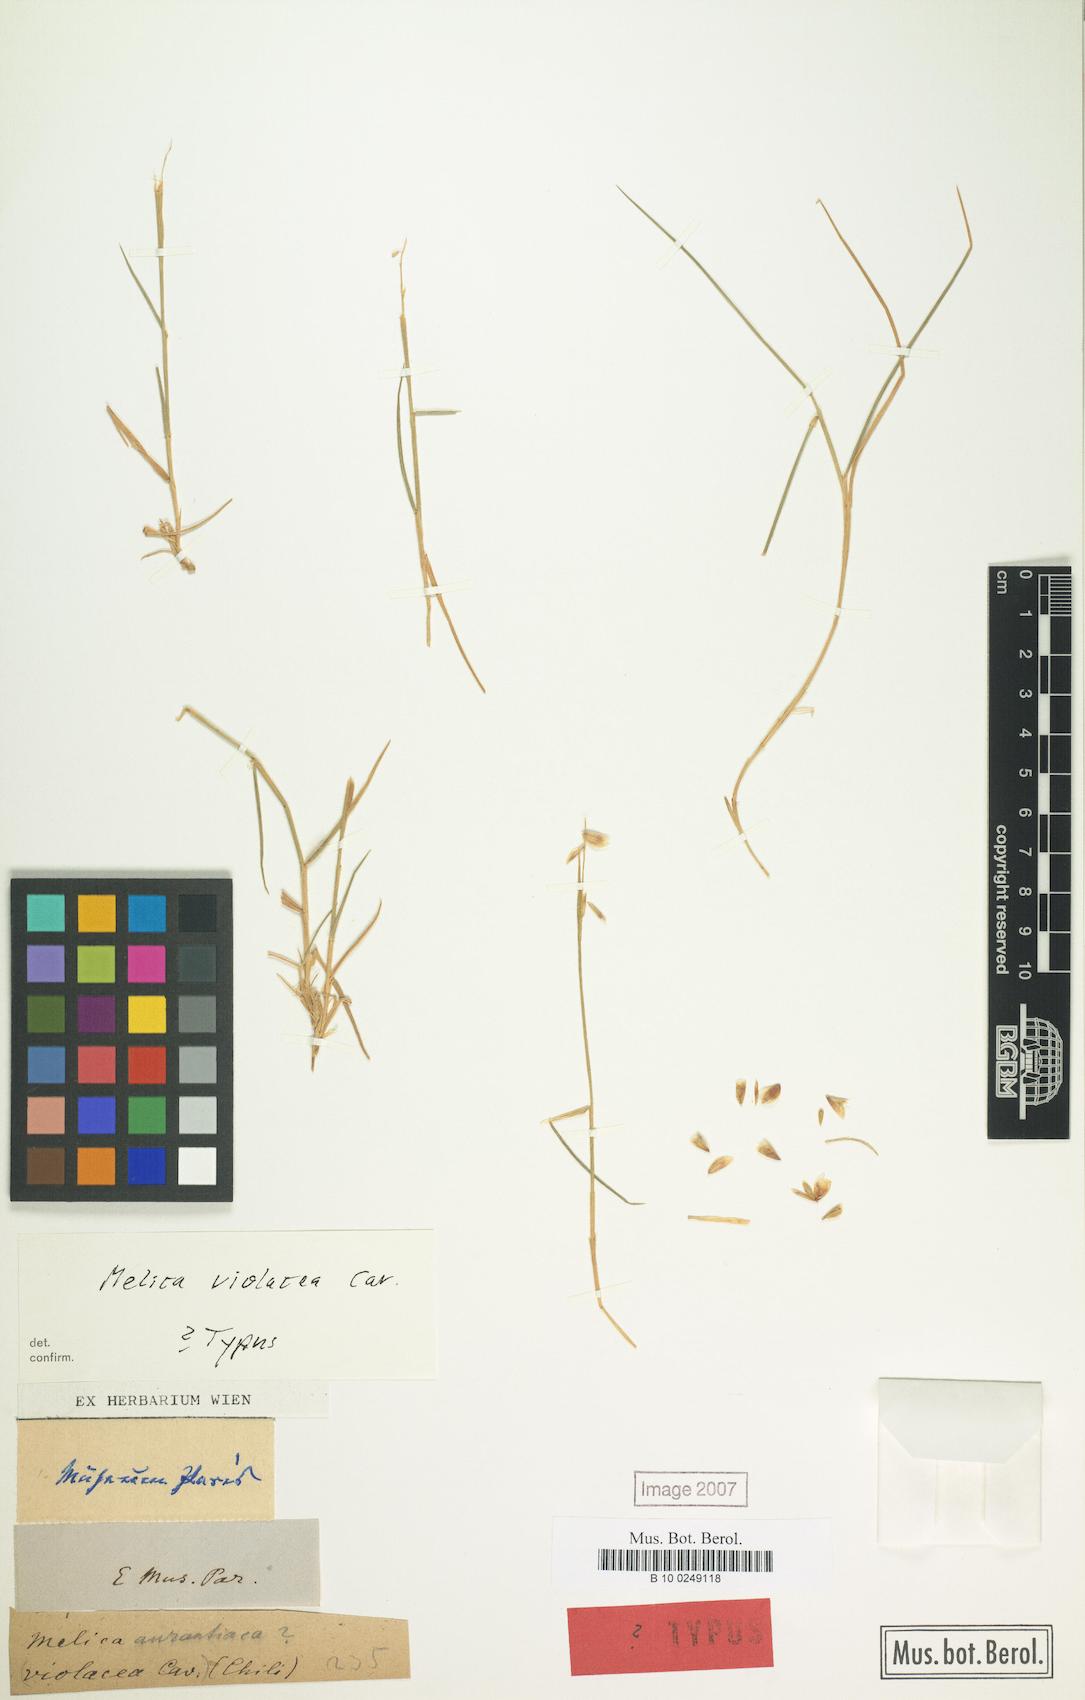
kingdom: Plantae
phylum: Tracheophyta
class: Liliopsida
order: Poales
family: Poaceae
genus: Melica
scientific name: Melica violacea
